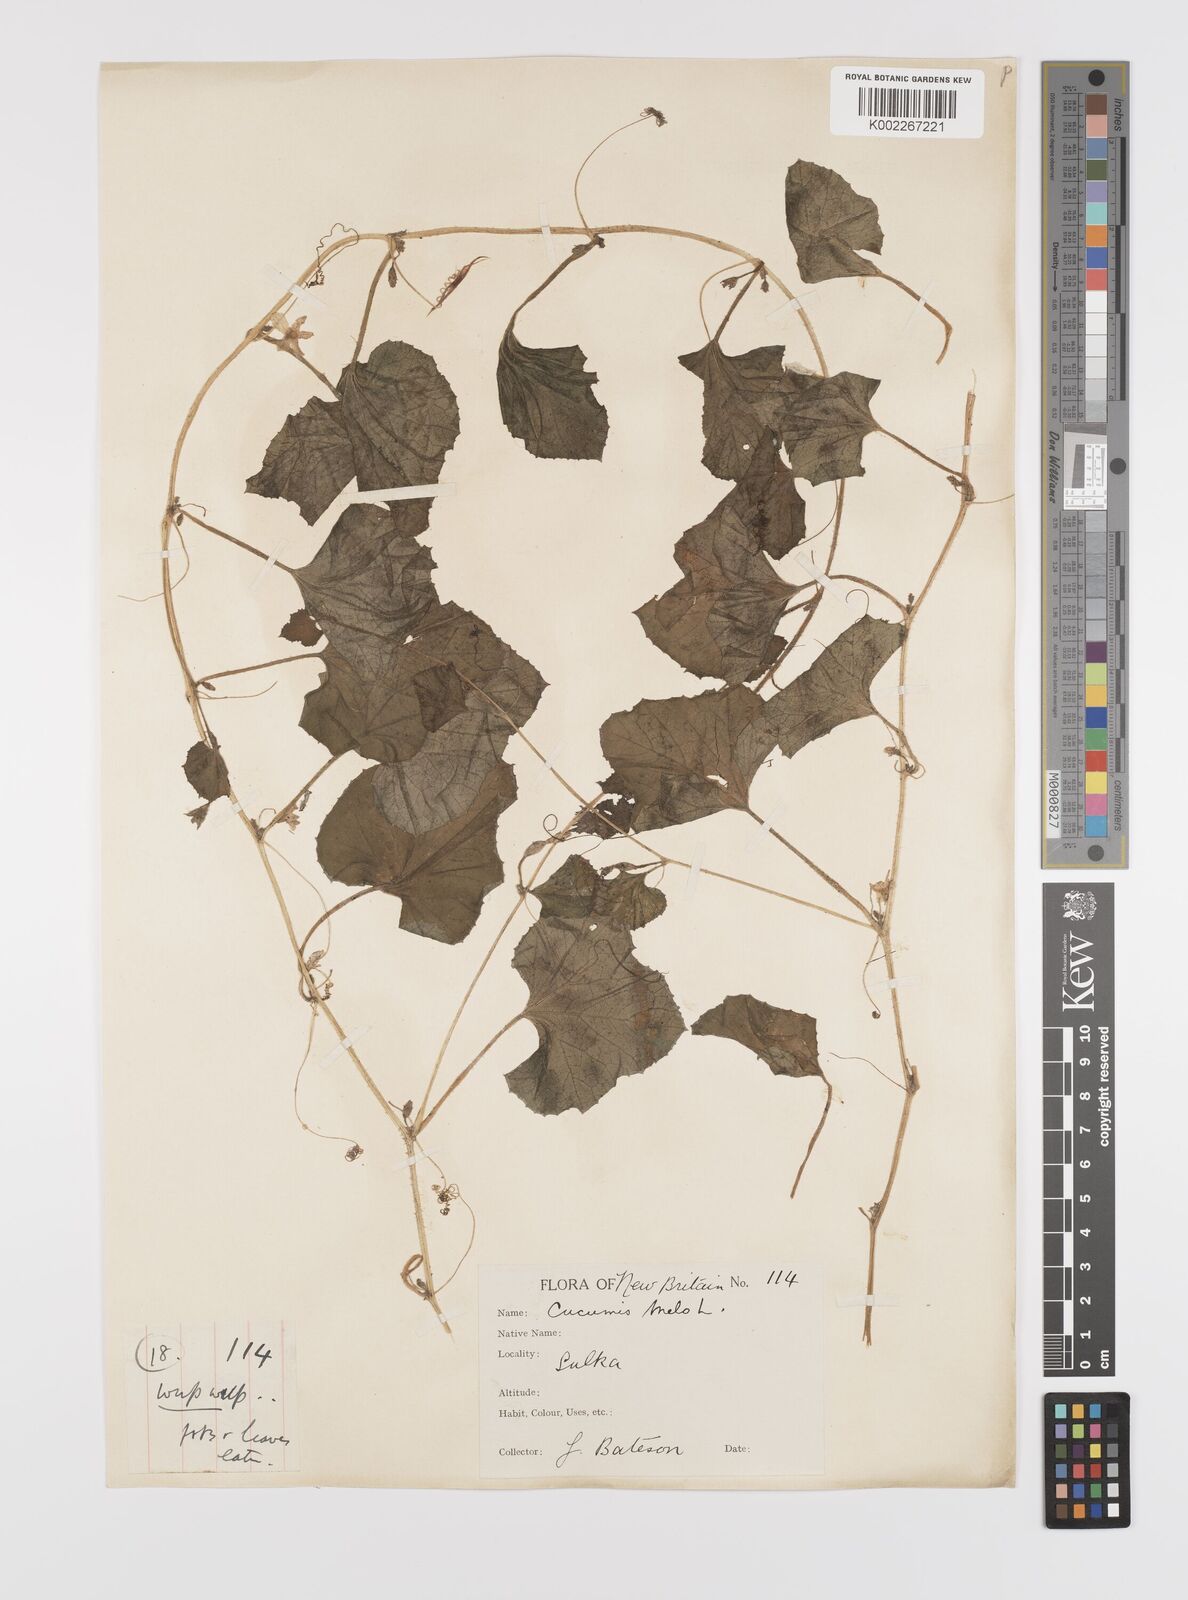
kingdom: Plantae
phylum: Tracheophyta
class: Magnoliopsida
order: Cucurbitales
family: Cucurbitaceae
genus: Cucumis
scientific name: Cucumis melo
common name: Melon
